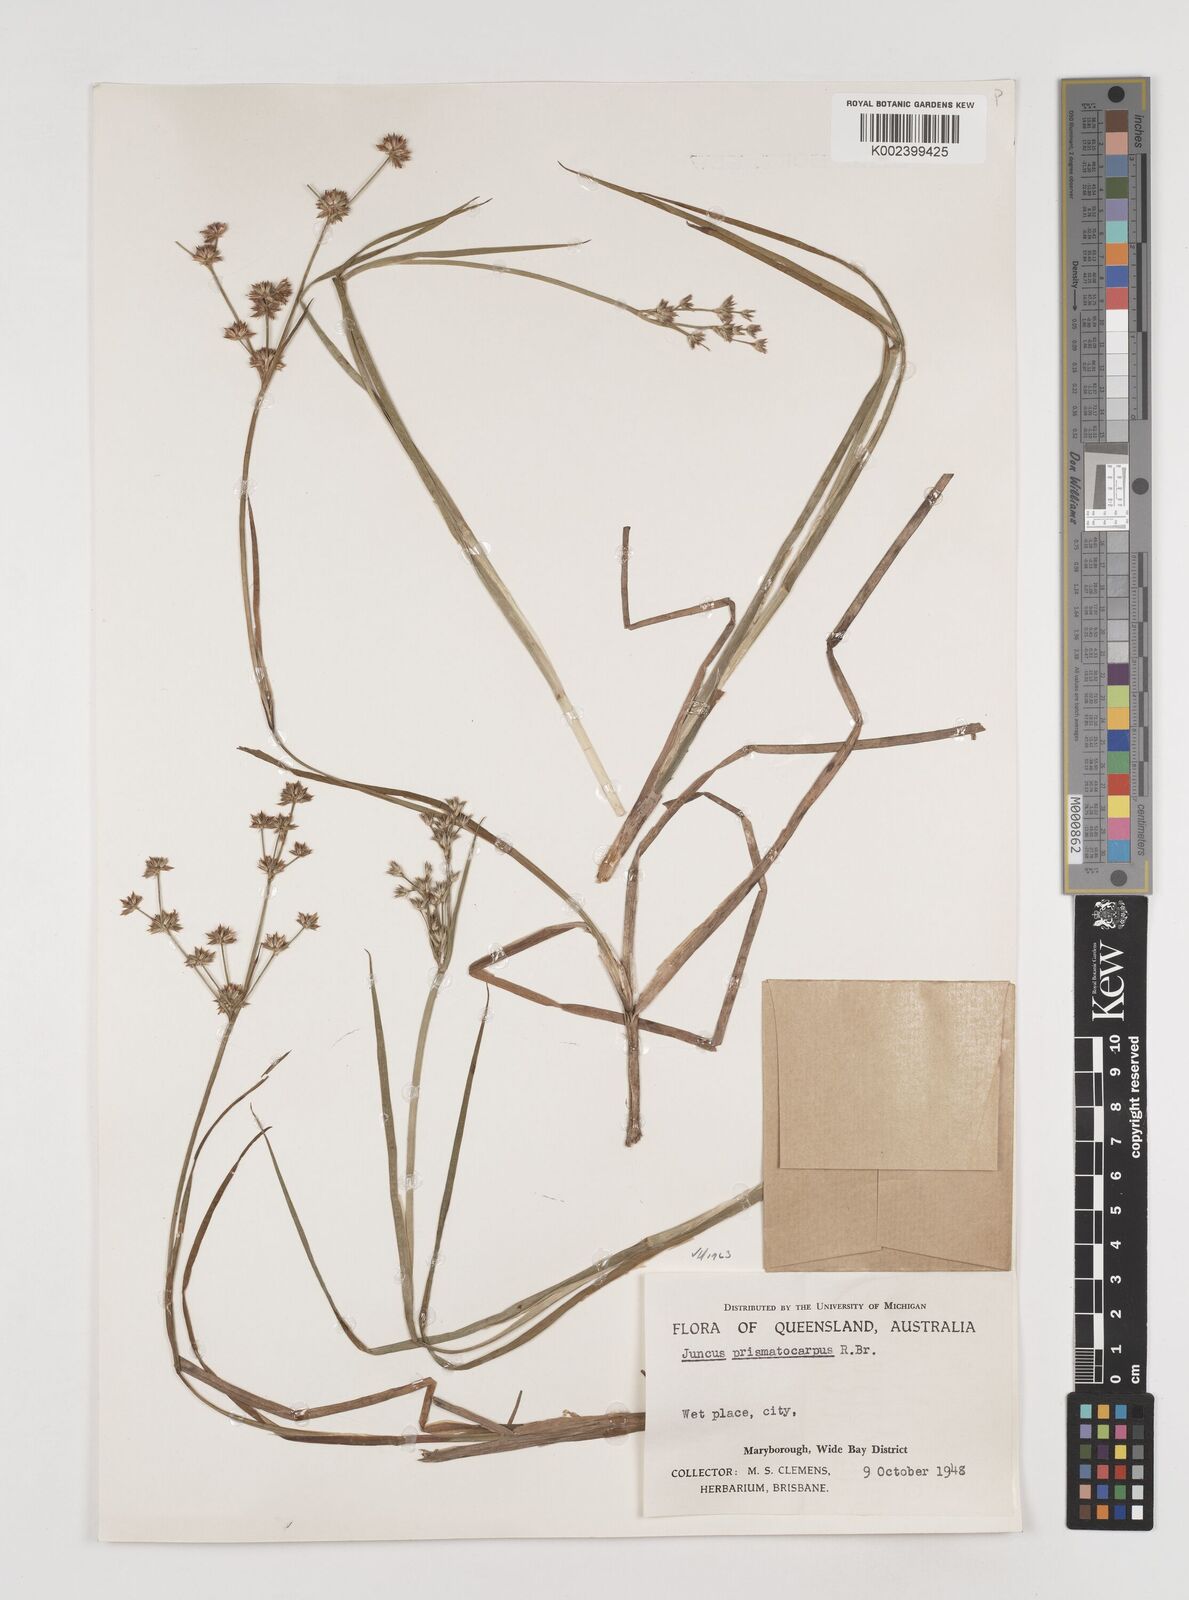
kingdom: Plantae
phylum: Tracheophyta
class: Liliopsida
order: Poales
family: Juncaceae
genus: Juncus
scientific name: Juncus prismatocarpus
